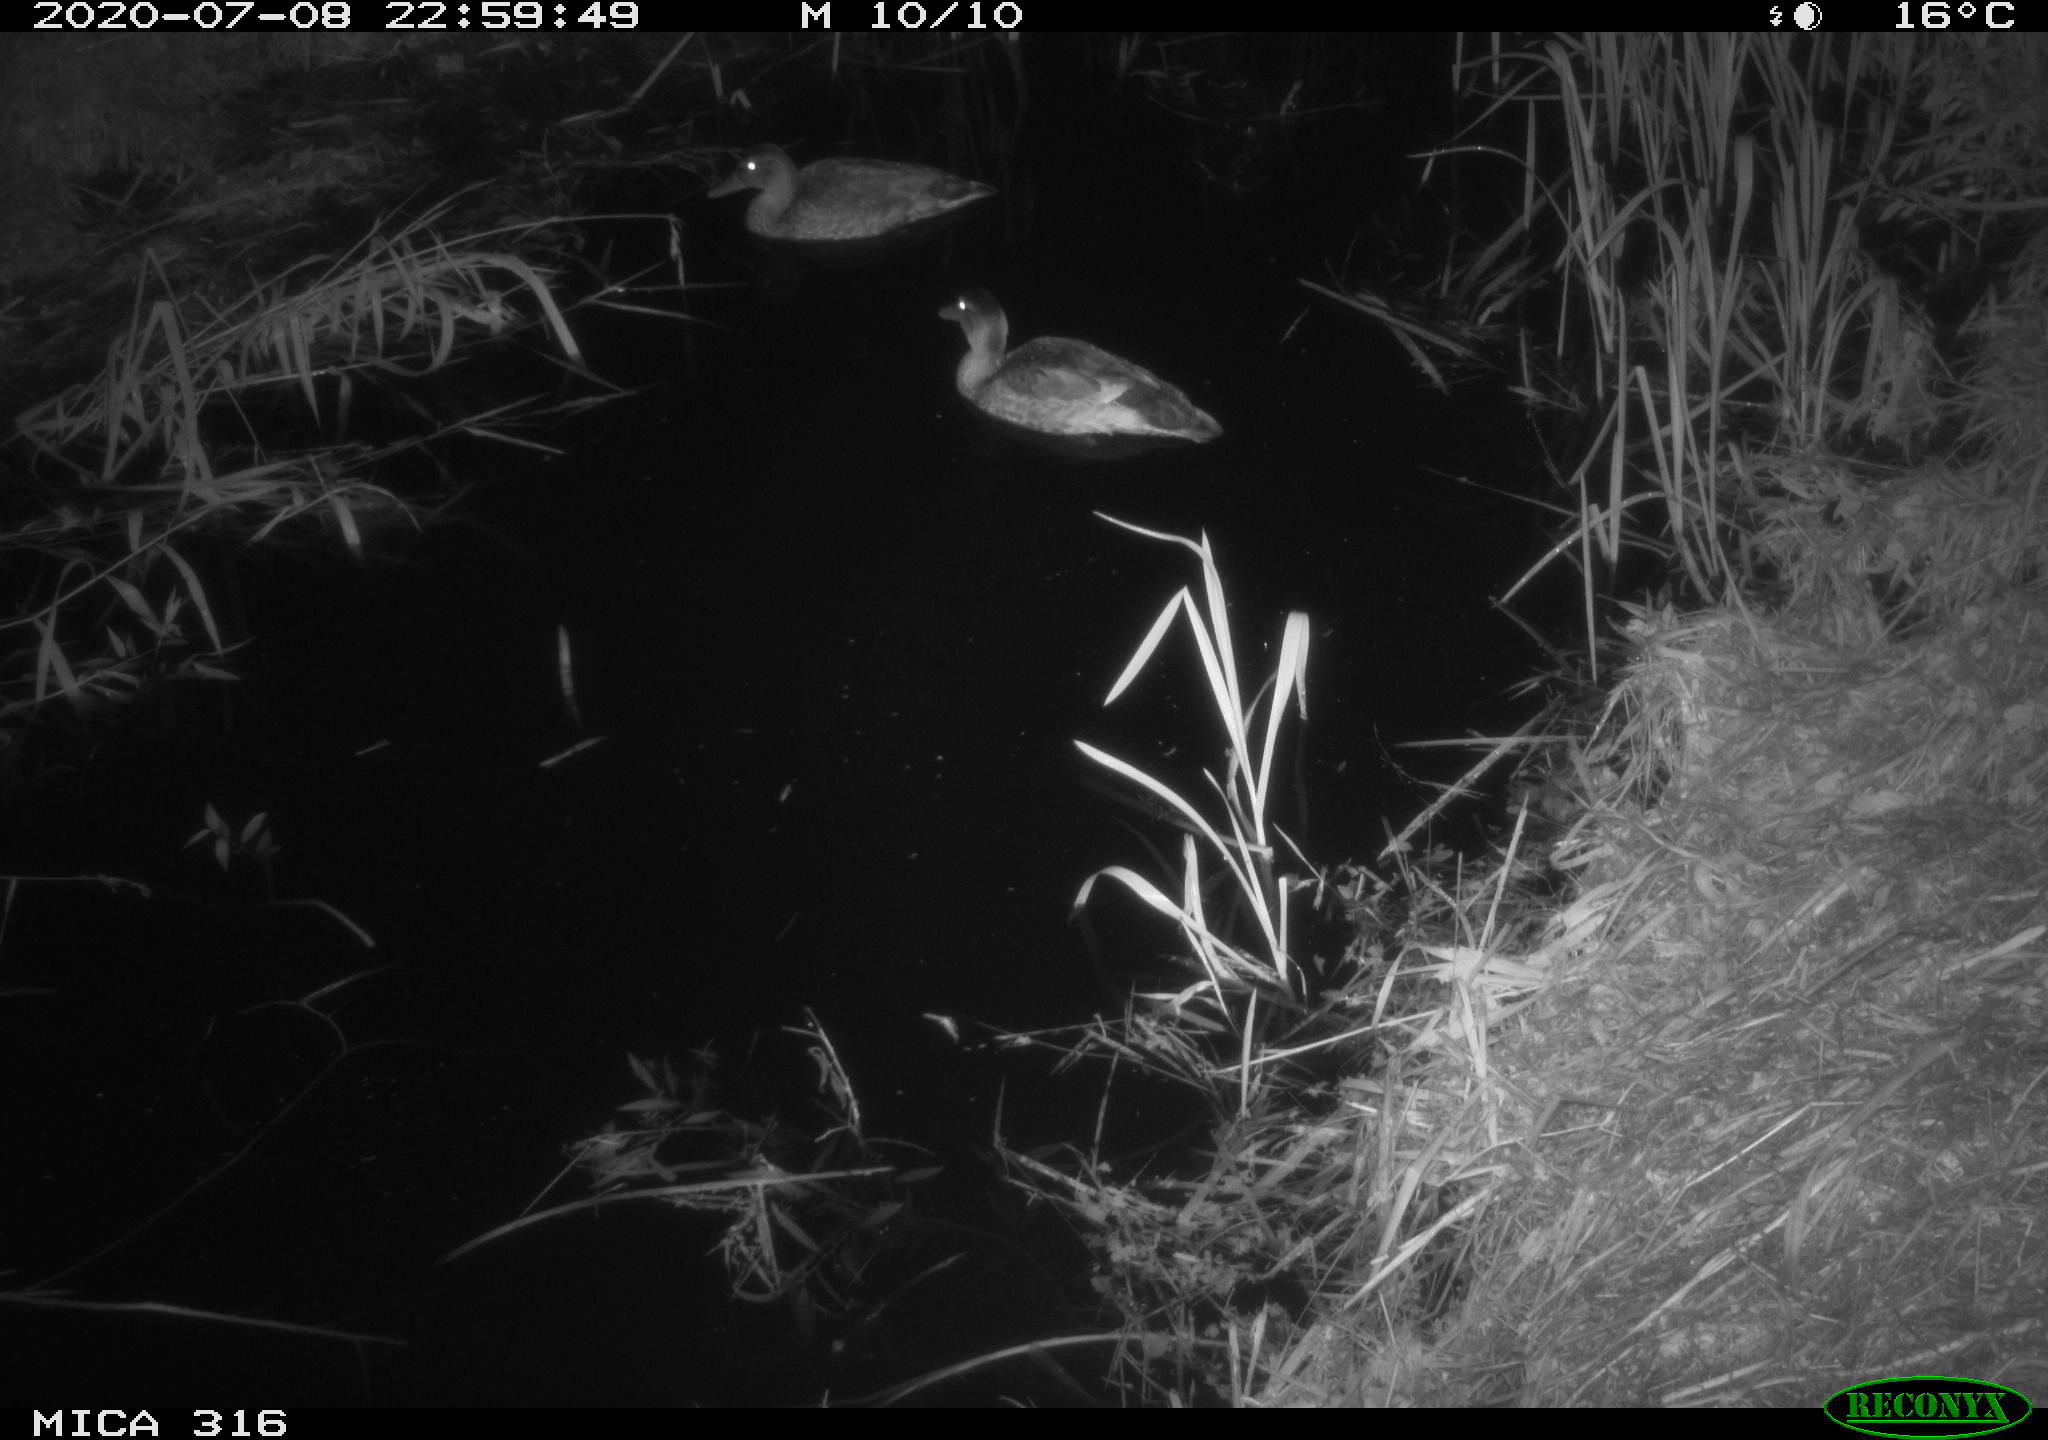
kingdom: Animalia
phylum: Chordata
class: Aves
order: Anseriformes
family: Anatidae
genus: Anas
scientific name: Anas platyrhynchos
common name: Mallard
